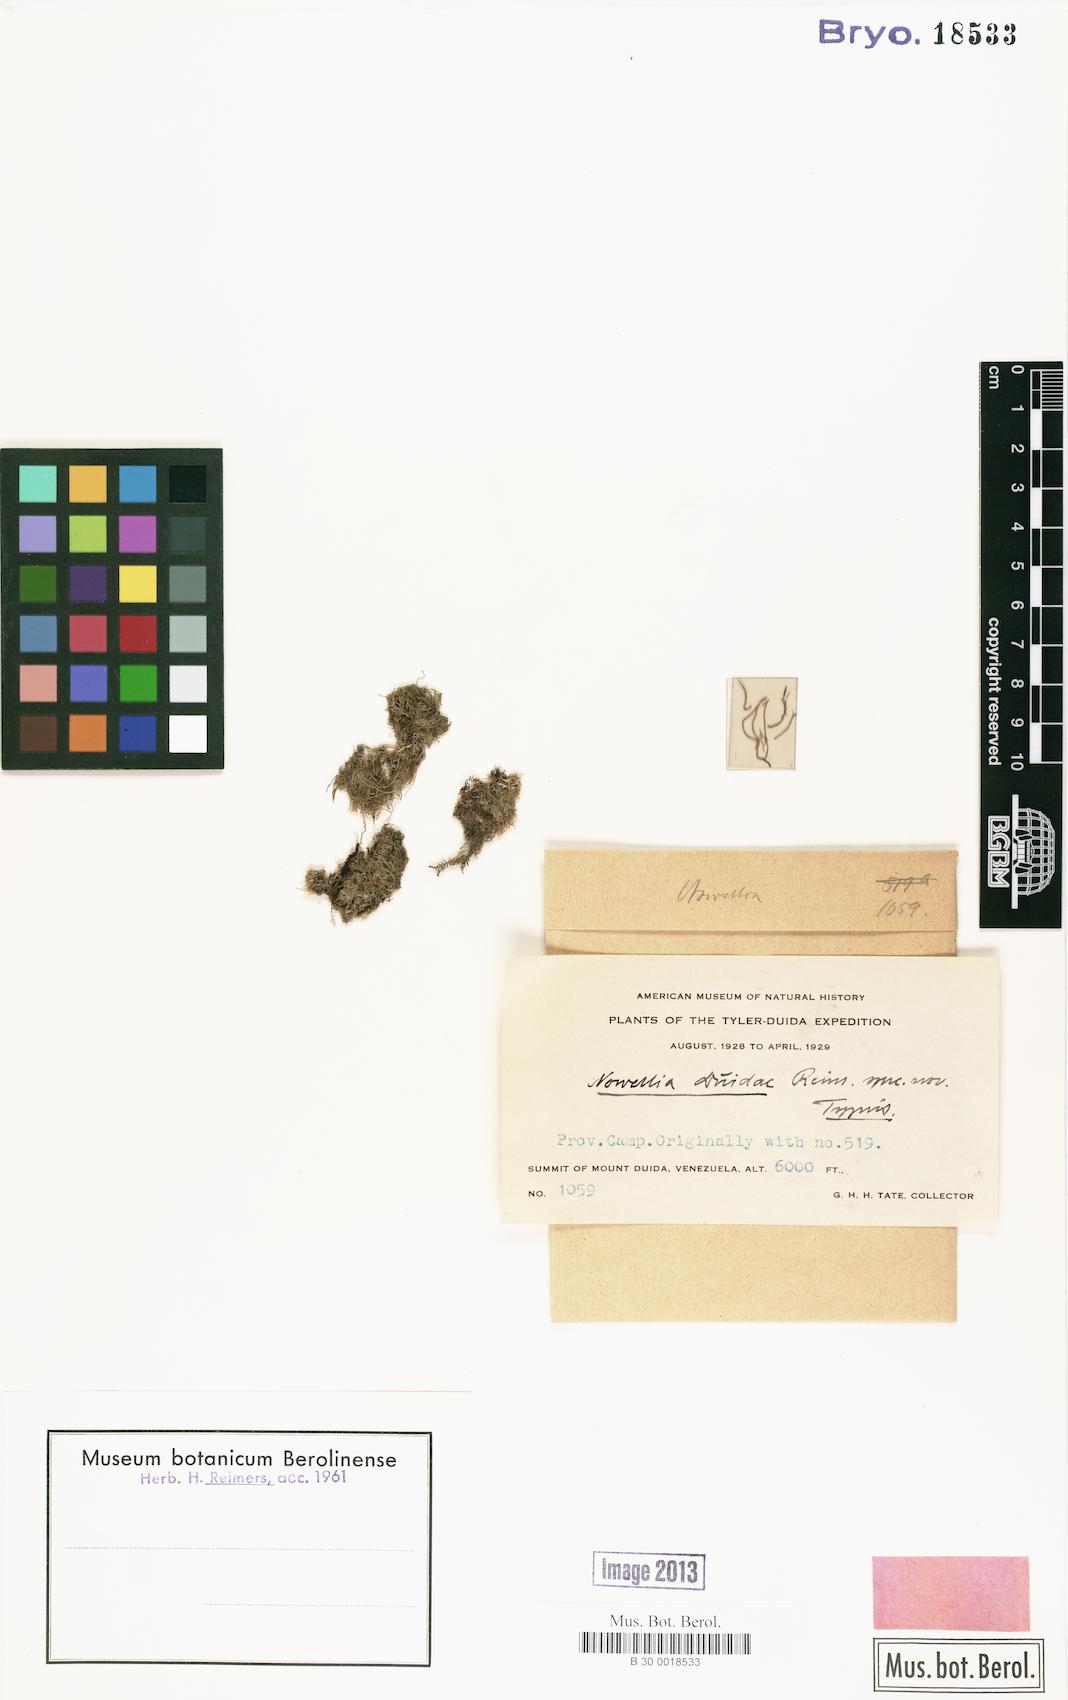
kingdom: Plantae
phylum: Marchantiophyta
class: Jungermanniopsida
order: Jungermanniales
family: Cephaloziaceae
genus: Nowellia
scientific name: Nowellia
